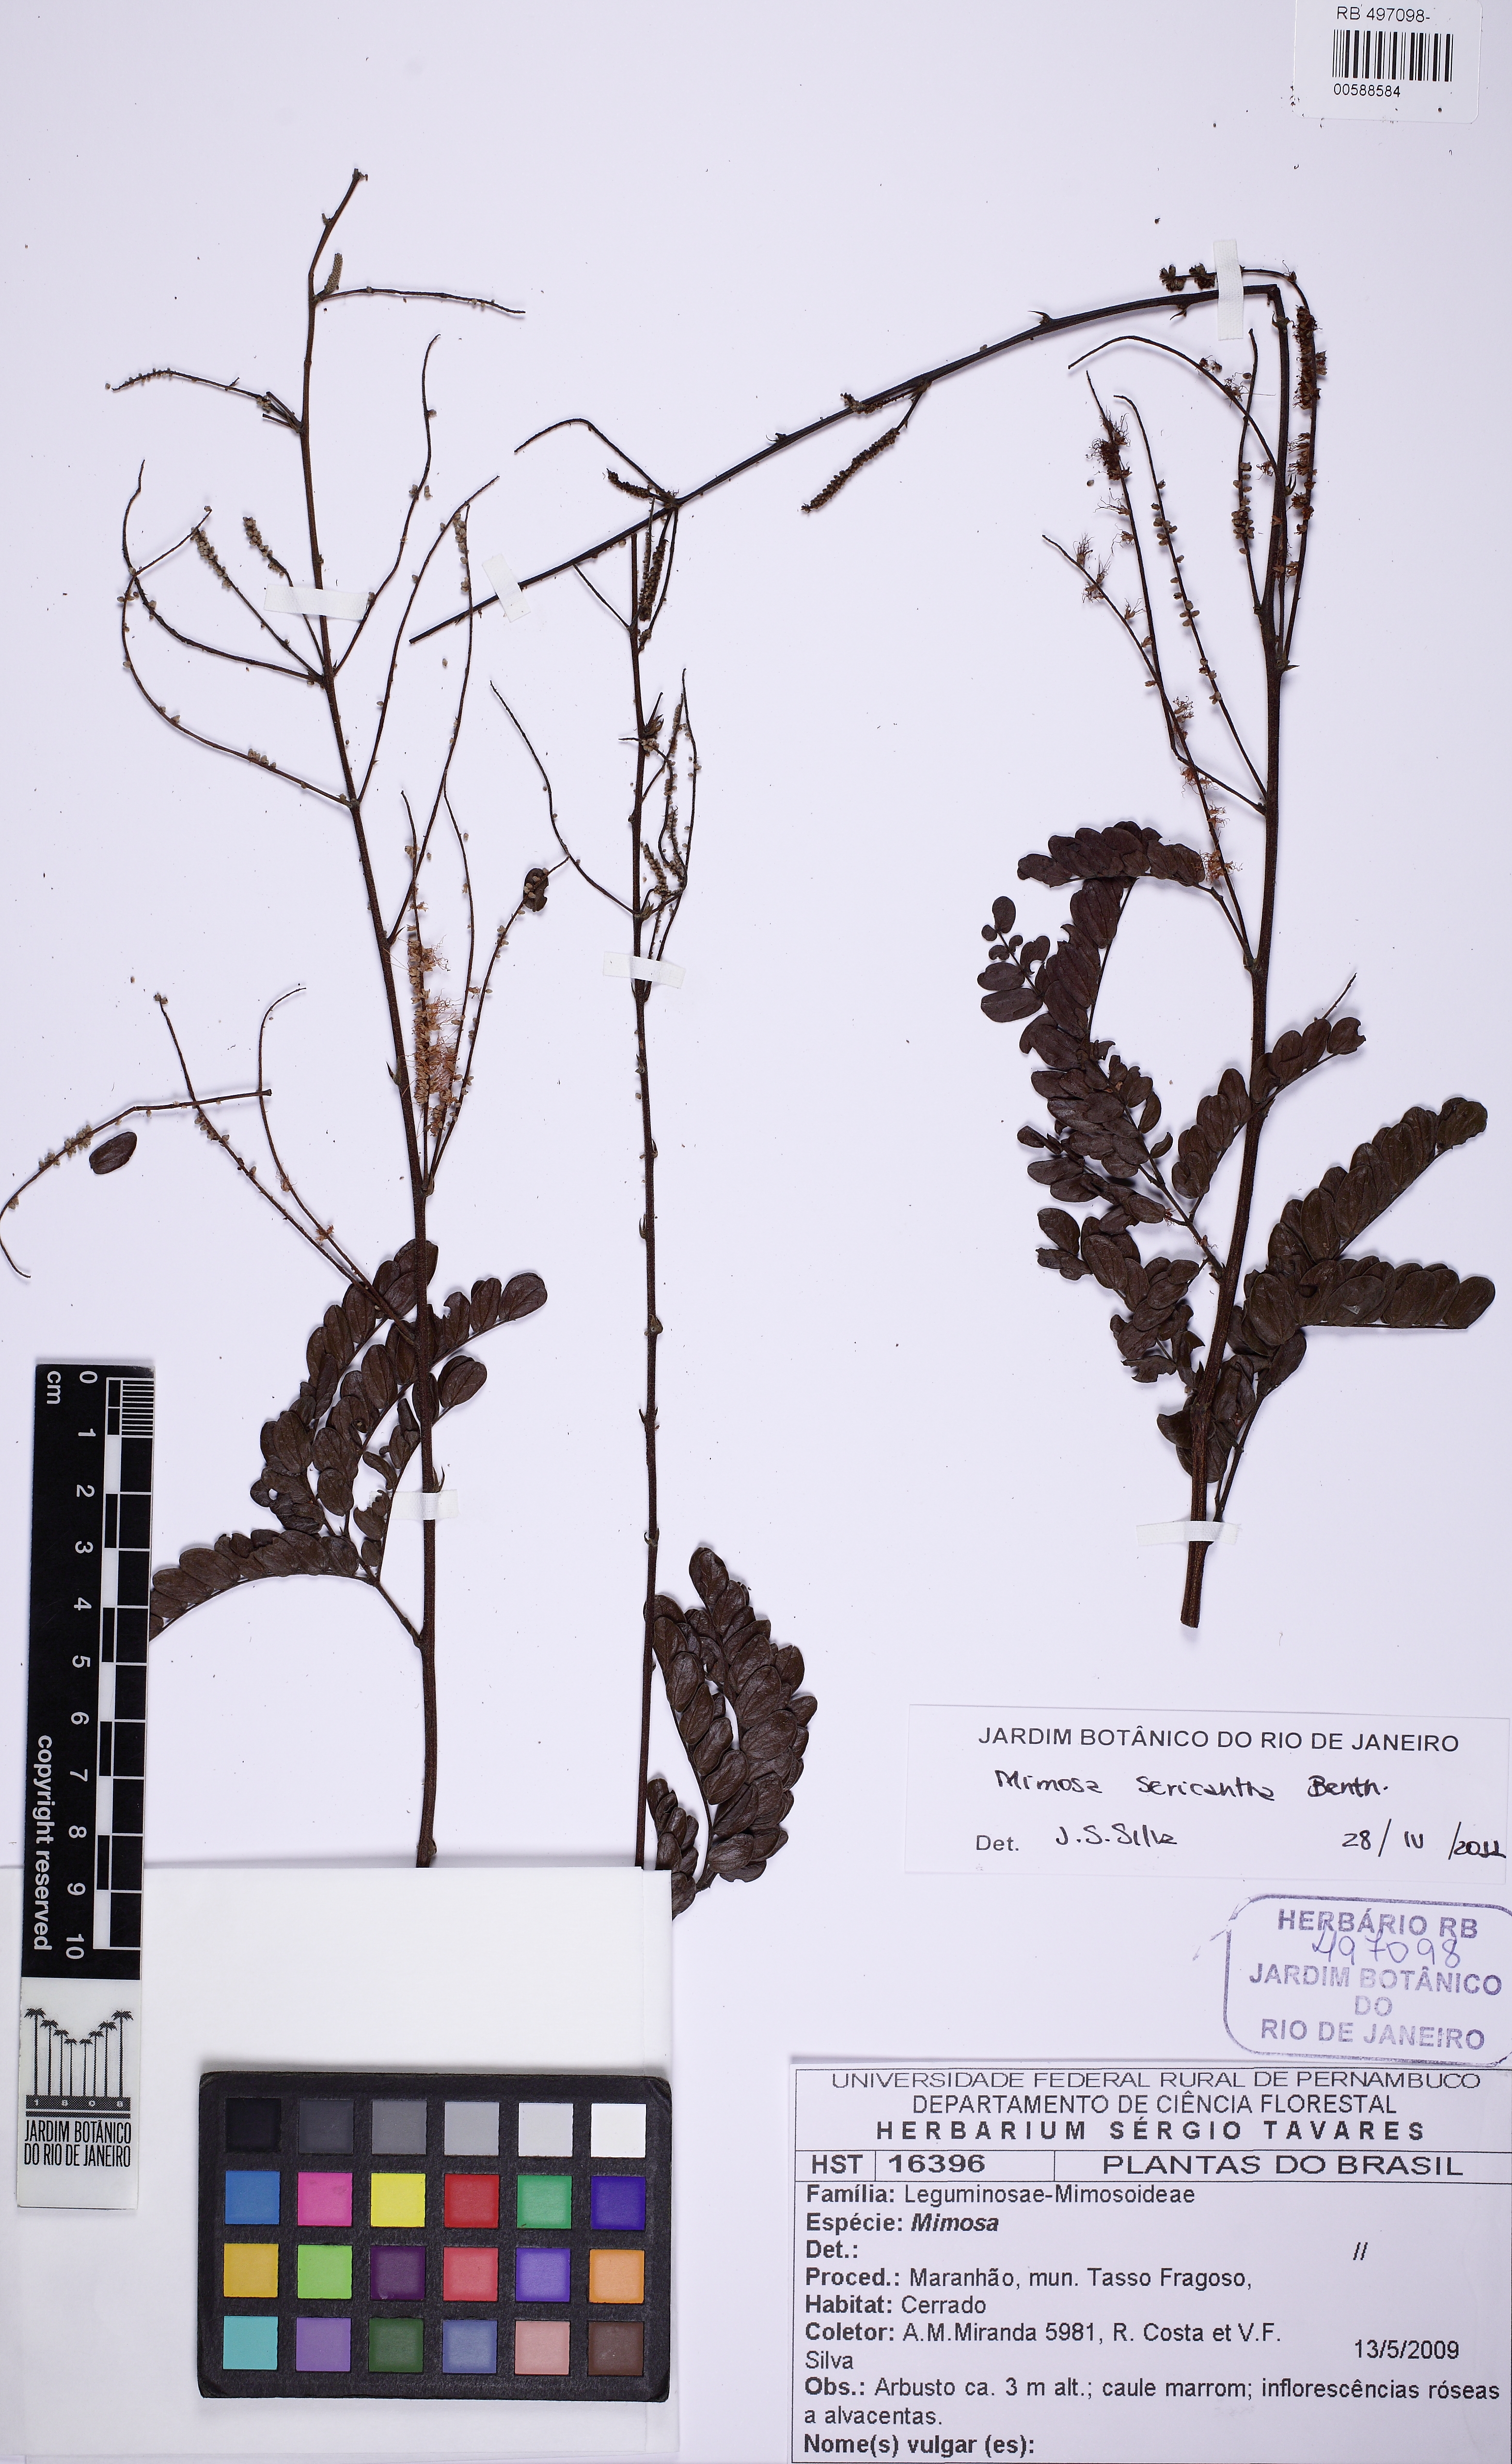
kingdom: Plantae
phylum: Tracheophyta
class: Magnoliopsida
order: Fabales
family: Fabaceae
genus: Mimosa
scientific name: Mimosa sericantha
